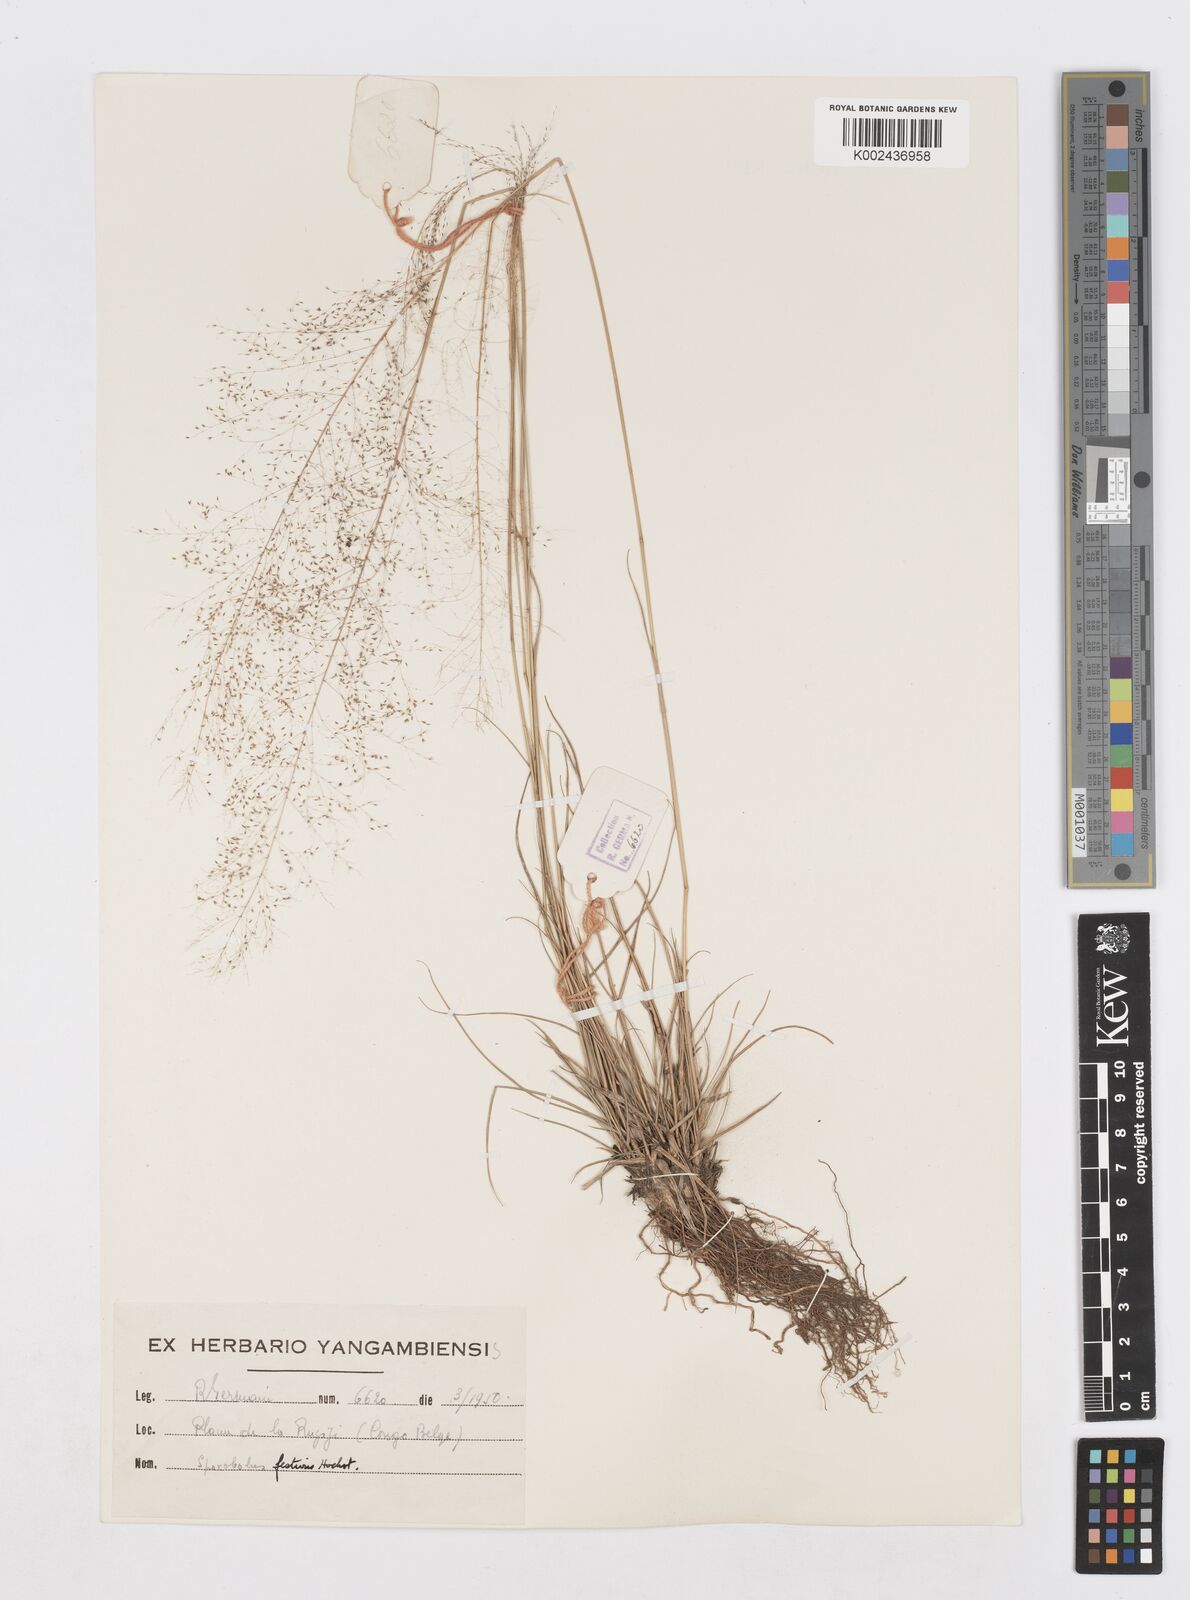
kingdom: Plantae
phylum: Tracheophyta
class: Liliopsida
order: Poales
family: Poaceae
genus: Sporobolus
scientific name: Sporobolus festivus
